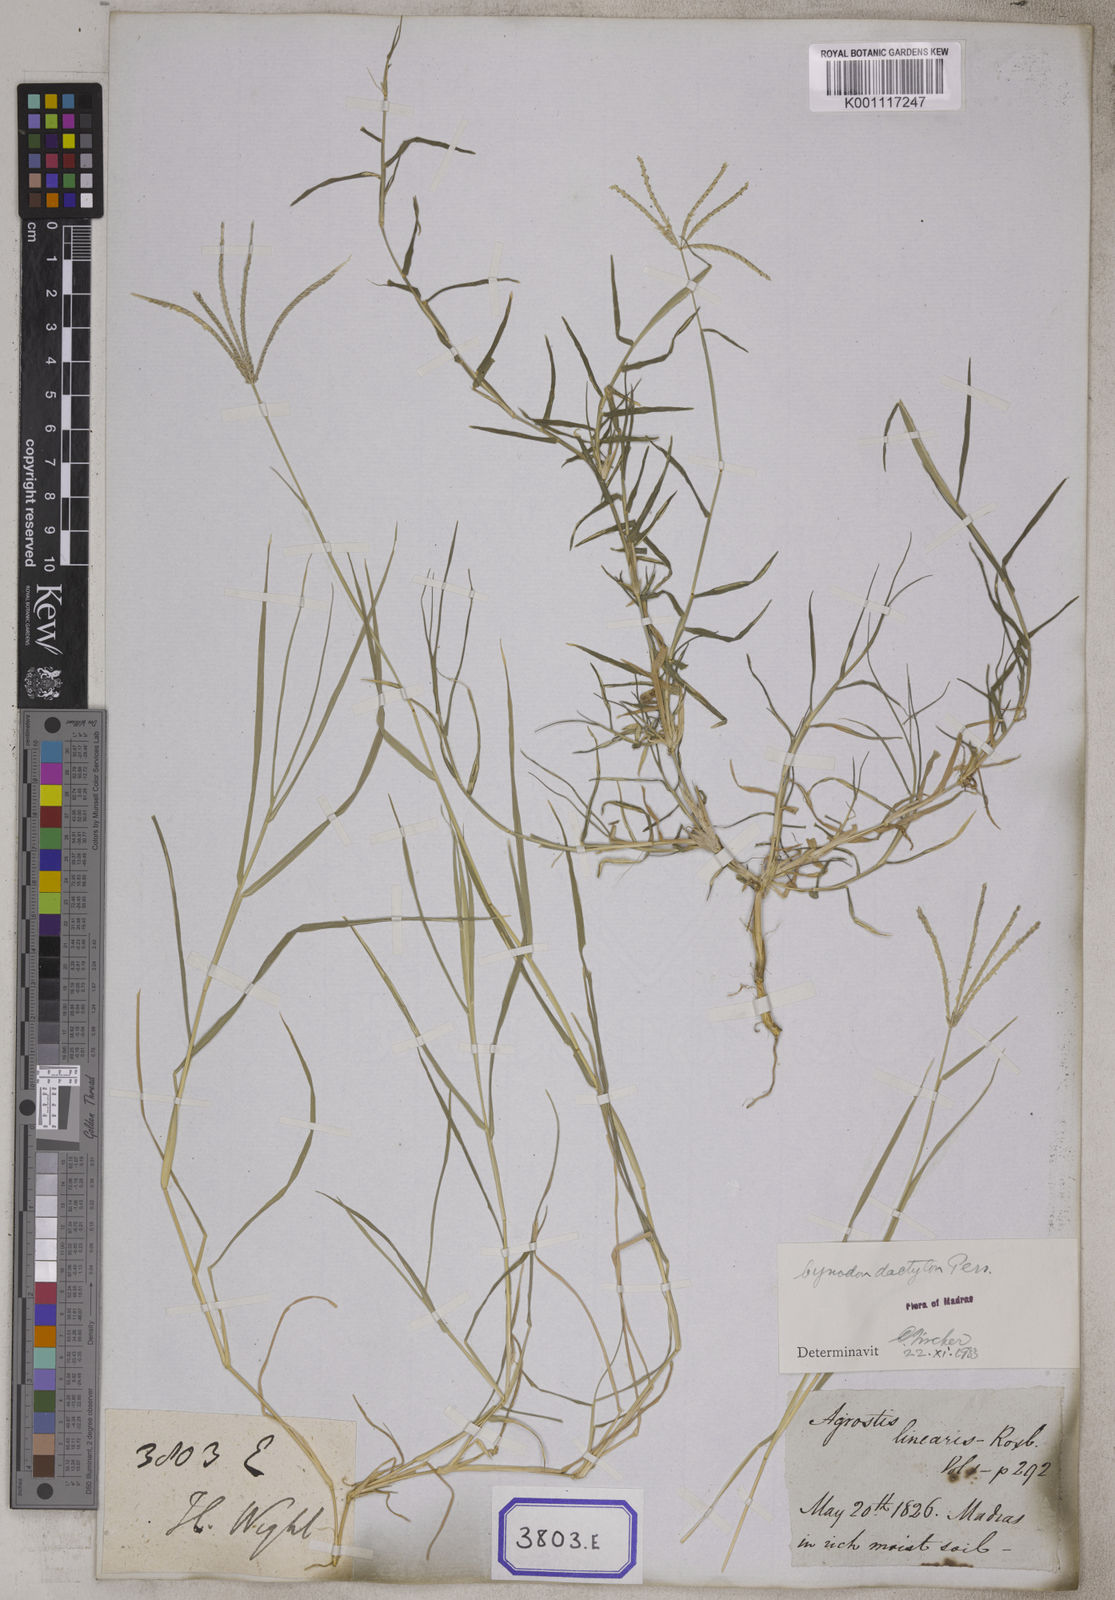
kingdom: Plantae
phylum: Tracheophyta
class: Liliopsida
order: Poales
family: Poaceae
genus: Cynodon
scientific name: Cynodon dactylon
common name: Bermuda grass
